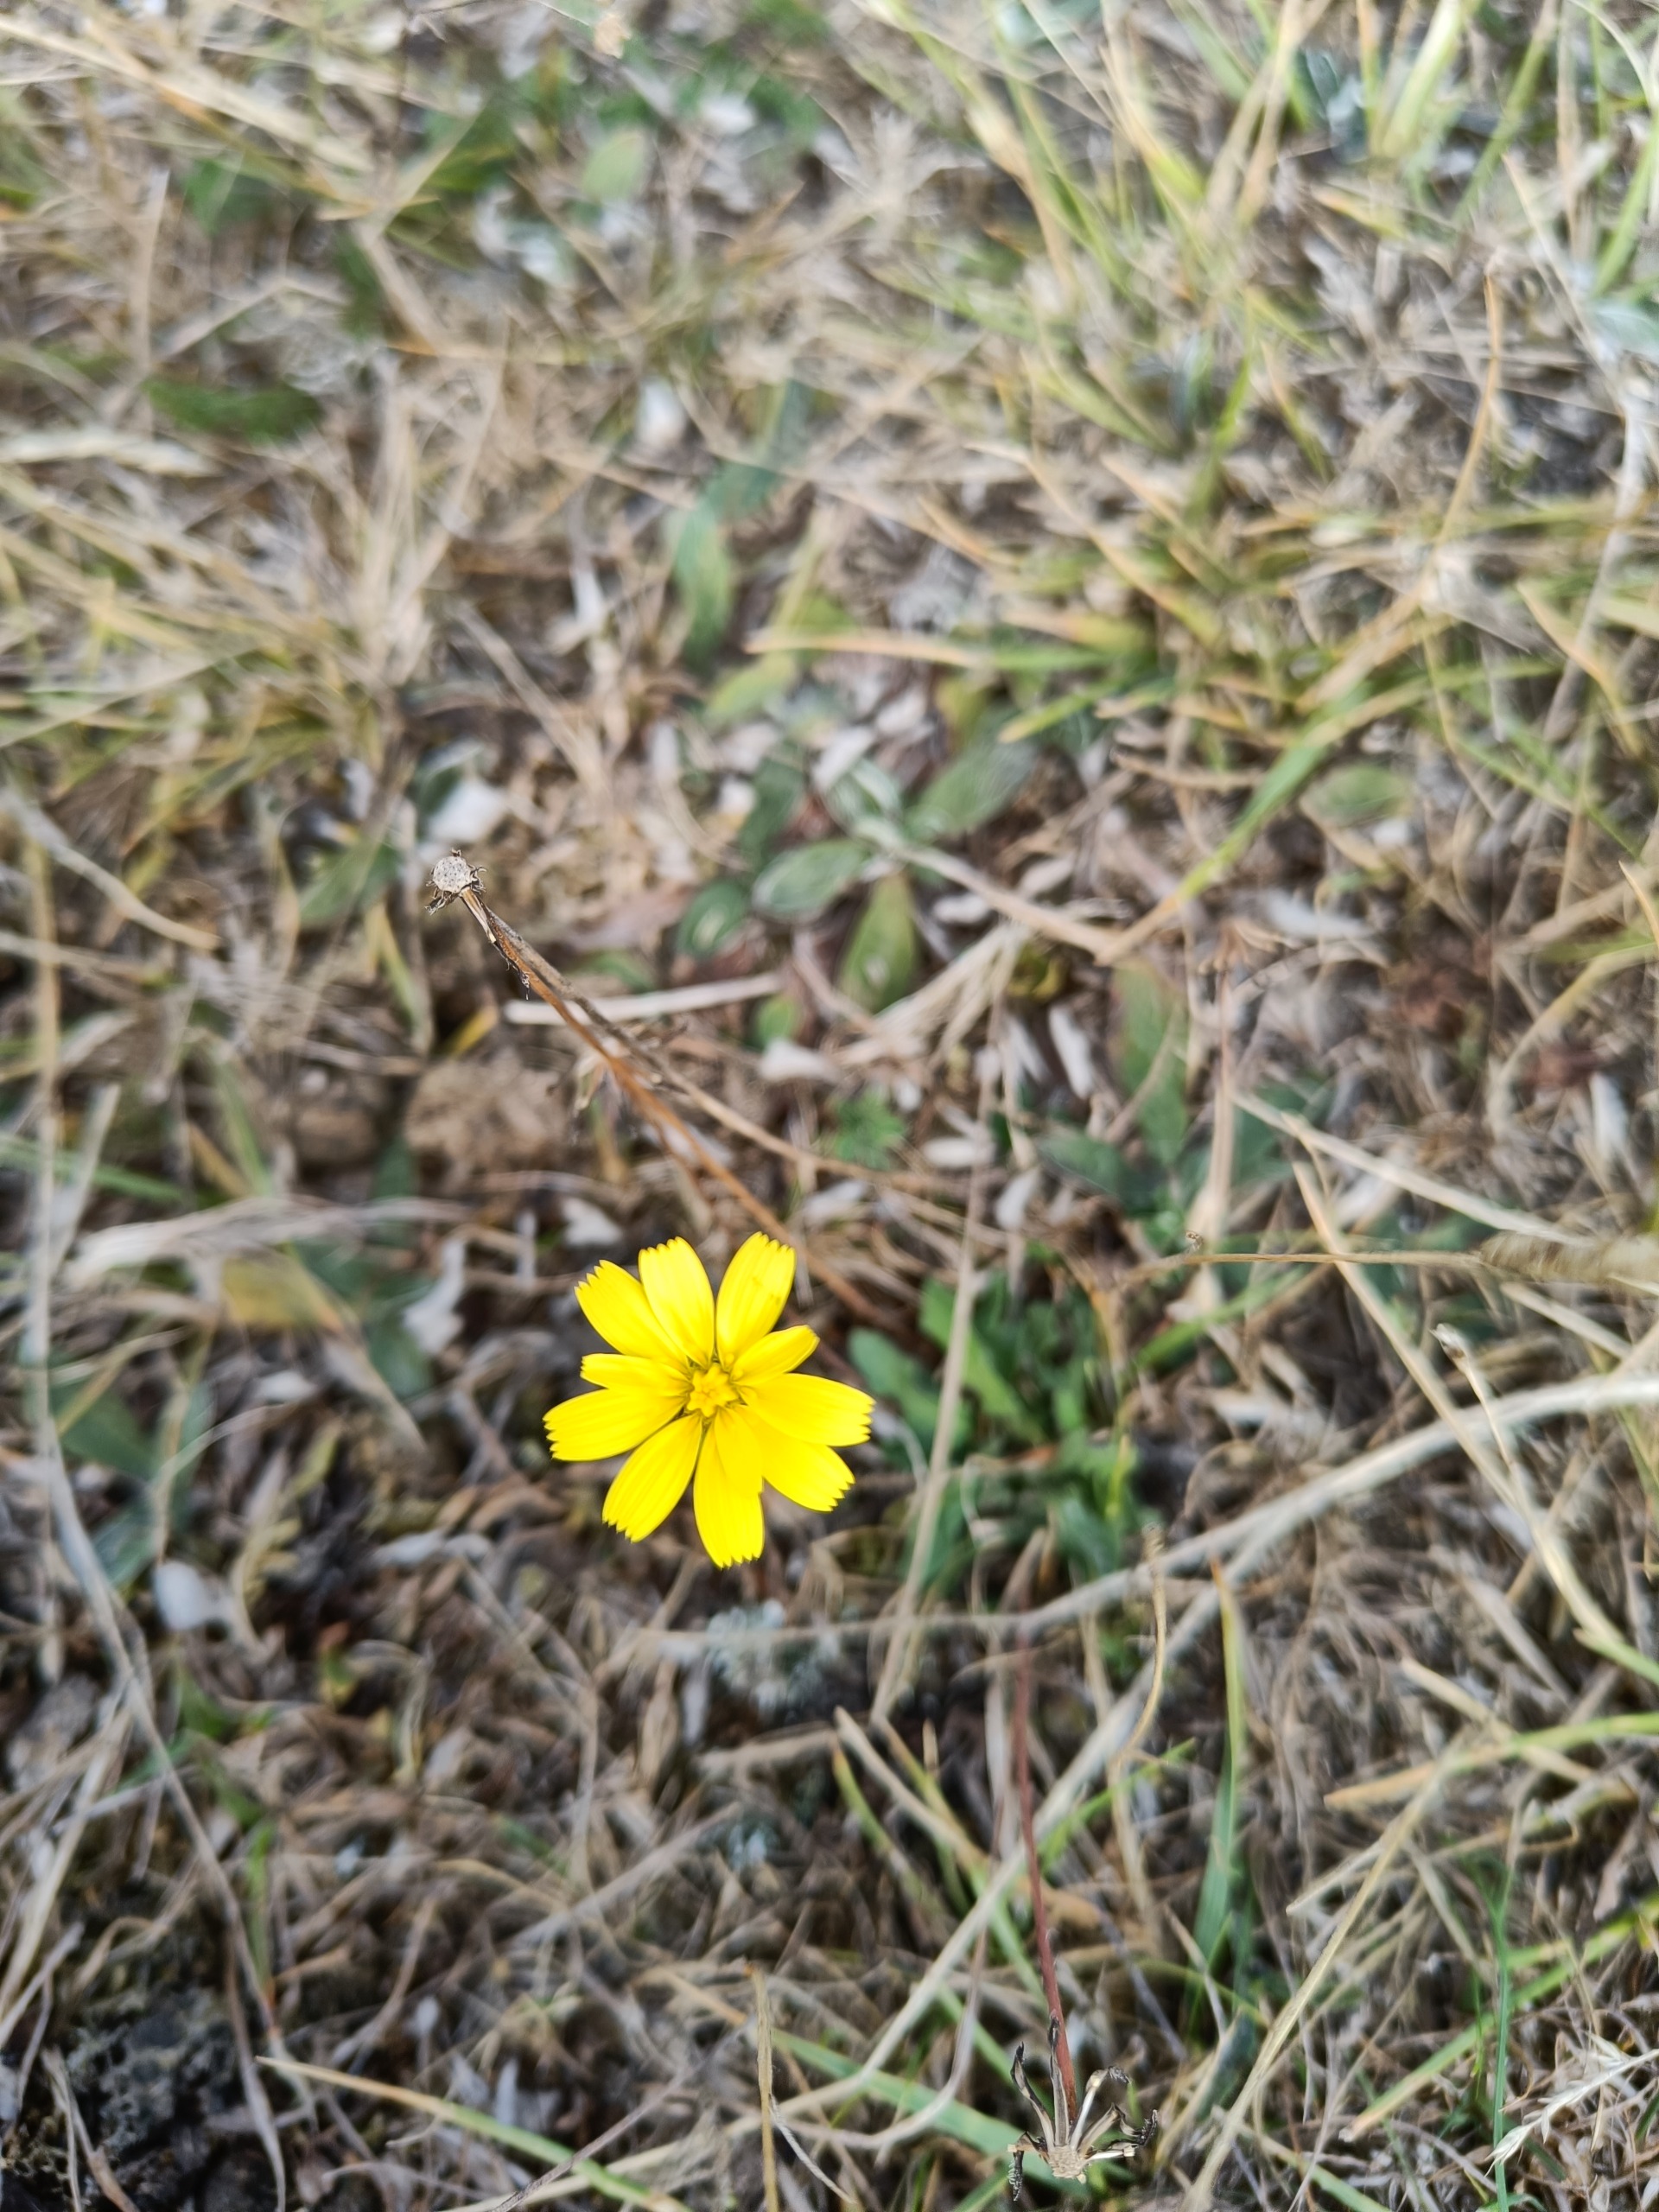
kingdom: Plantae
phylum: Tracheophyta
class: Magnoliopsida
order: Asterales
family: Asteraceae
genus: Thrincia
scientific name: Thrincia saxatilis
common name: Hundesalat
